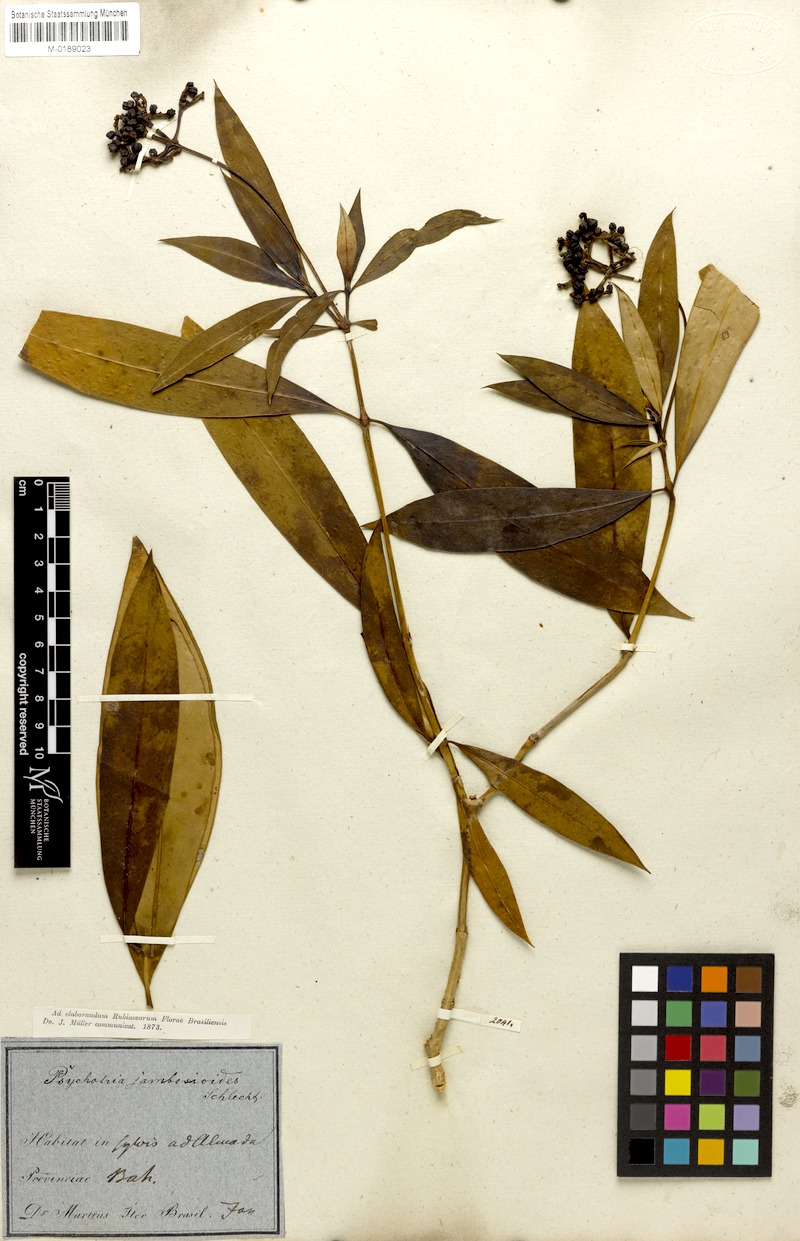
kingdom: Plantae
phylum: Tracheophyta
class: Magnoliopsida
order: Gentianales
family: Rubiaceae
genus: Palicourea
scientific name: Palicourea jambosioides
